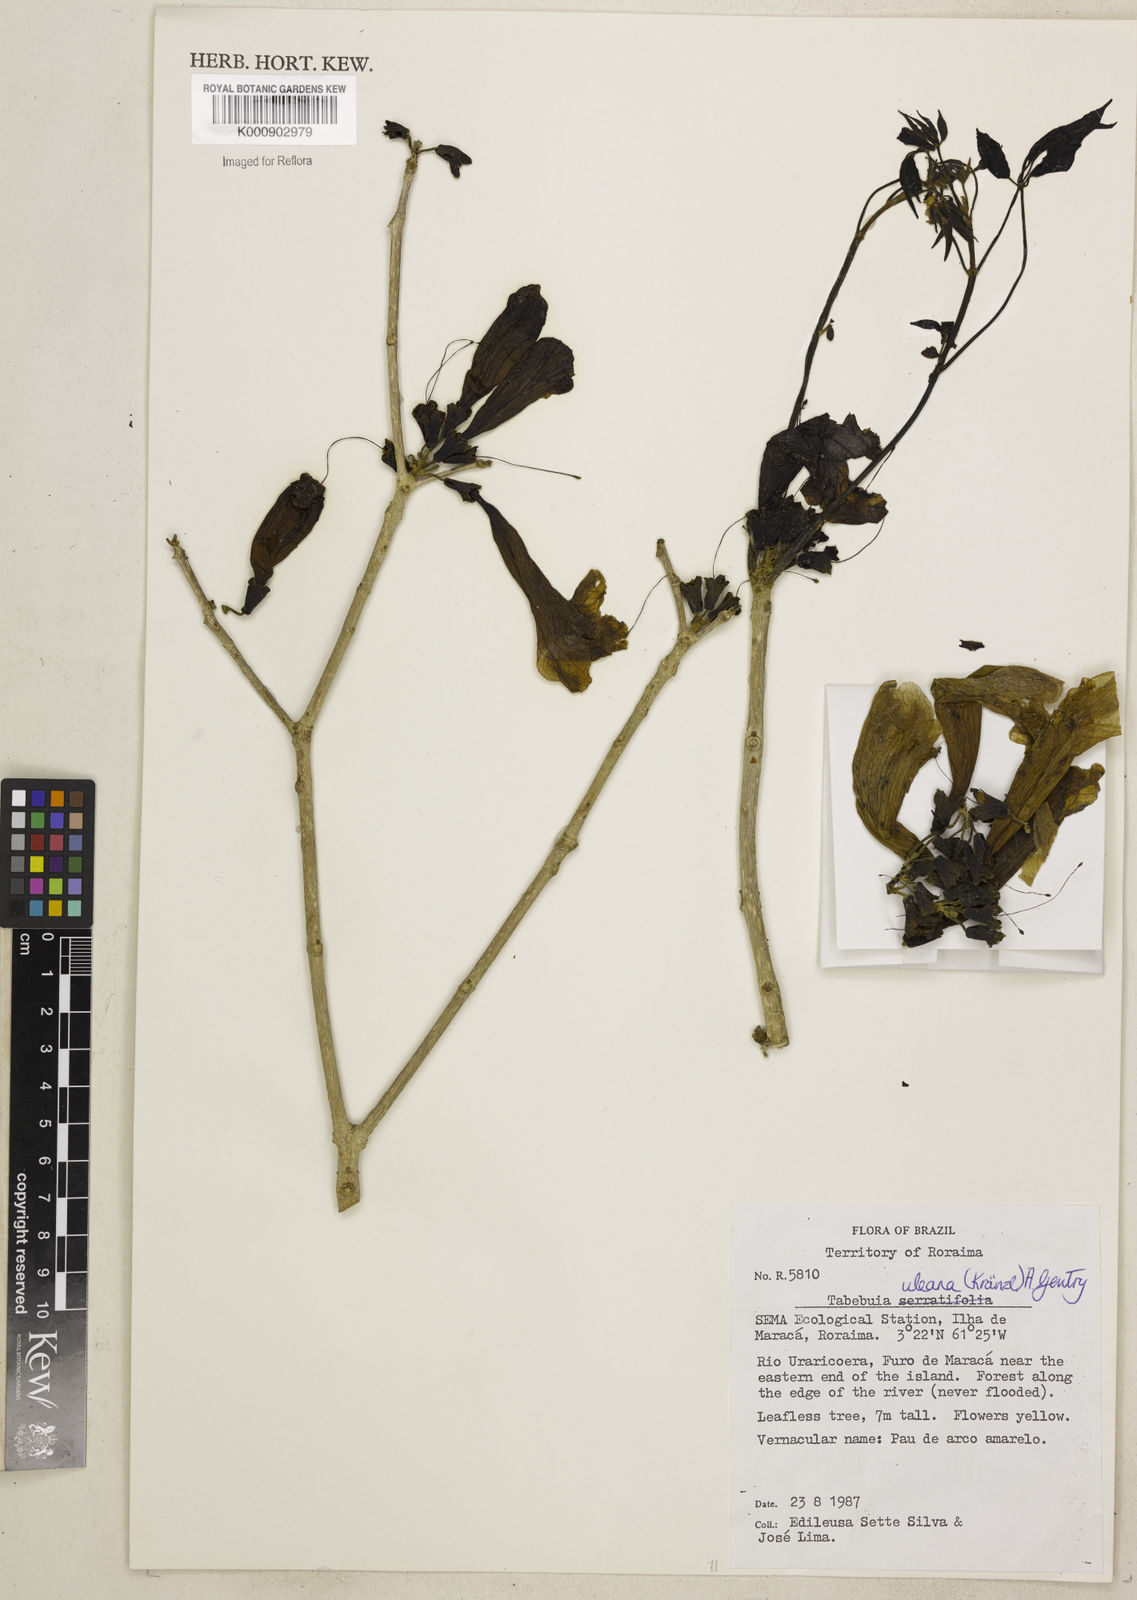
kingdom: Plantae
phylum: Tracheophyta
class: Magnoliopsida
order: Lamiales
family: Bignoniaceae
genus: Handroanthus
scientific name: Handroanthus uleanus
